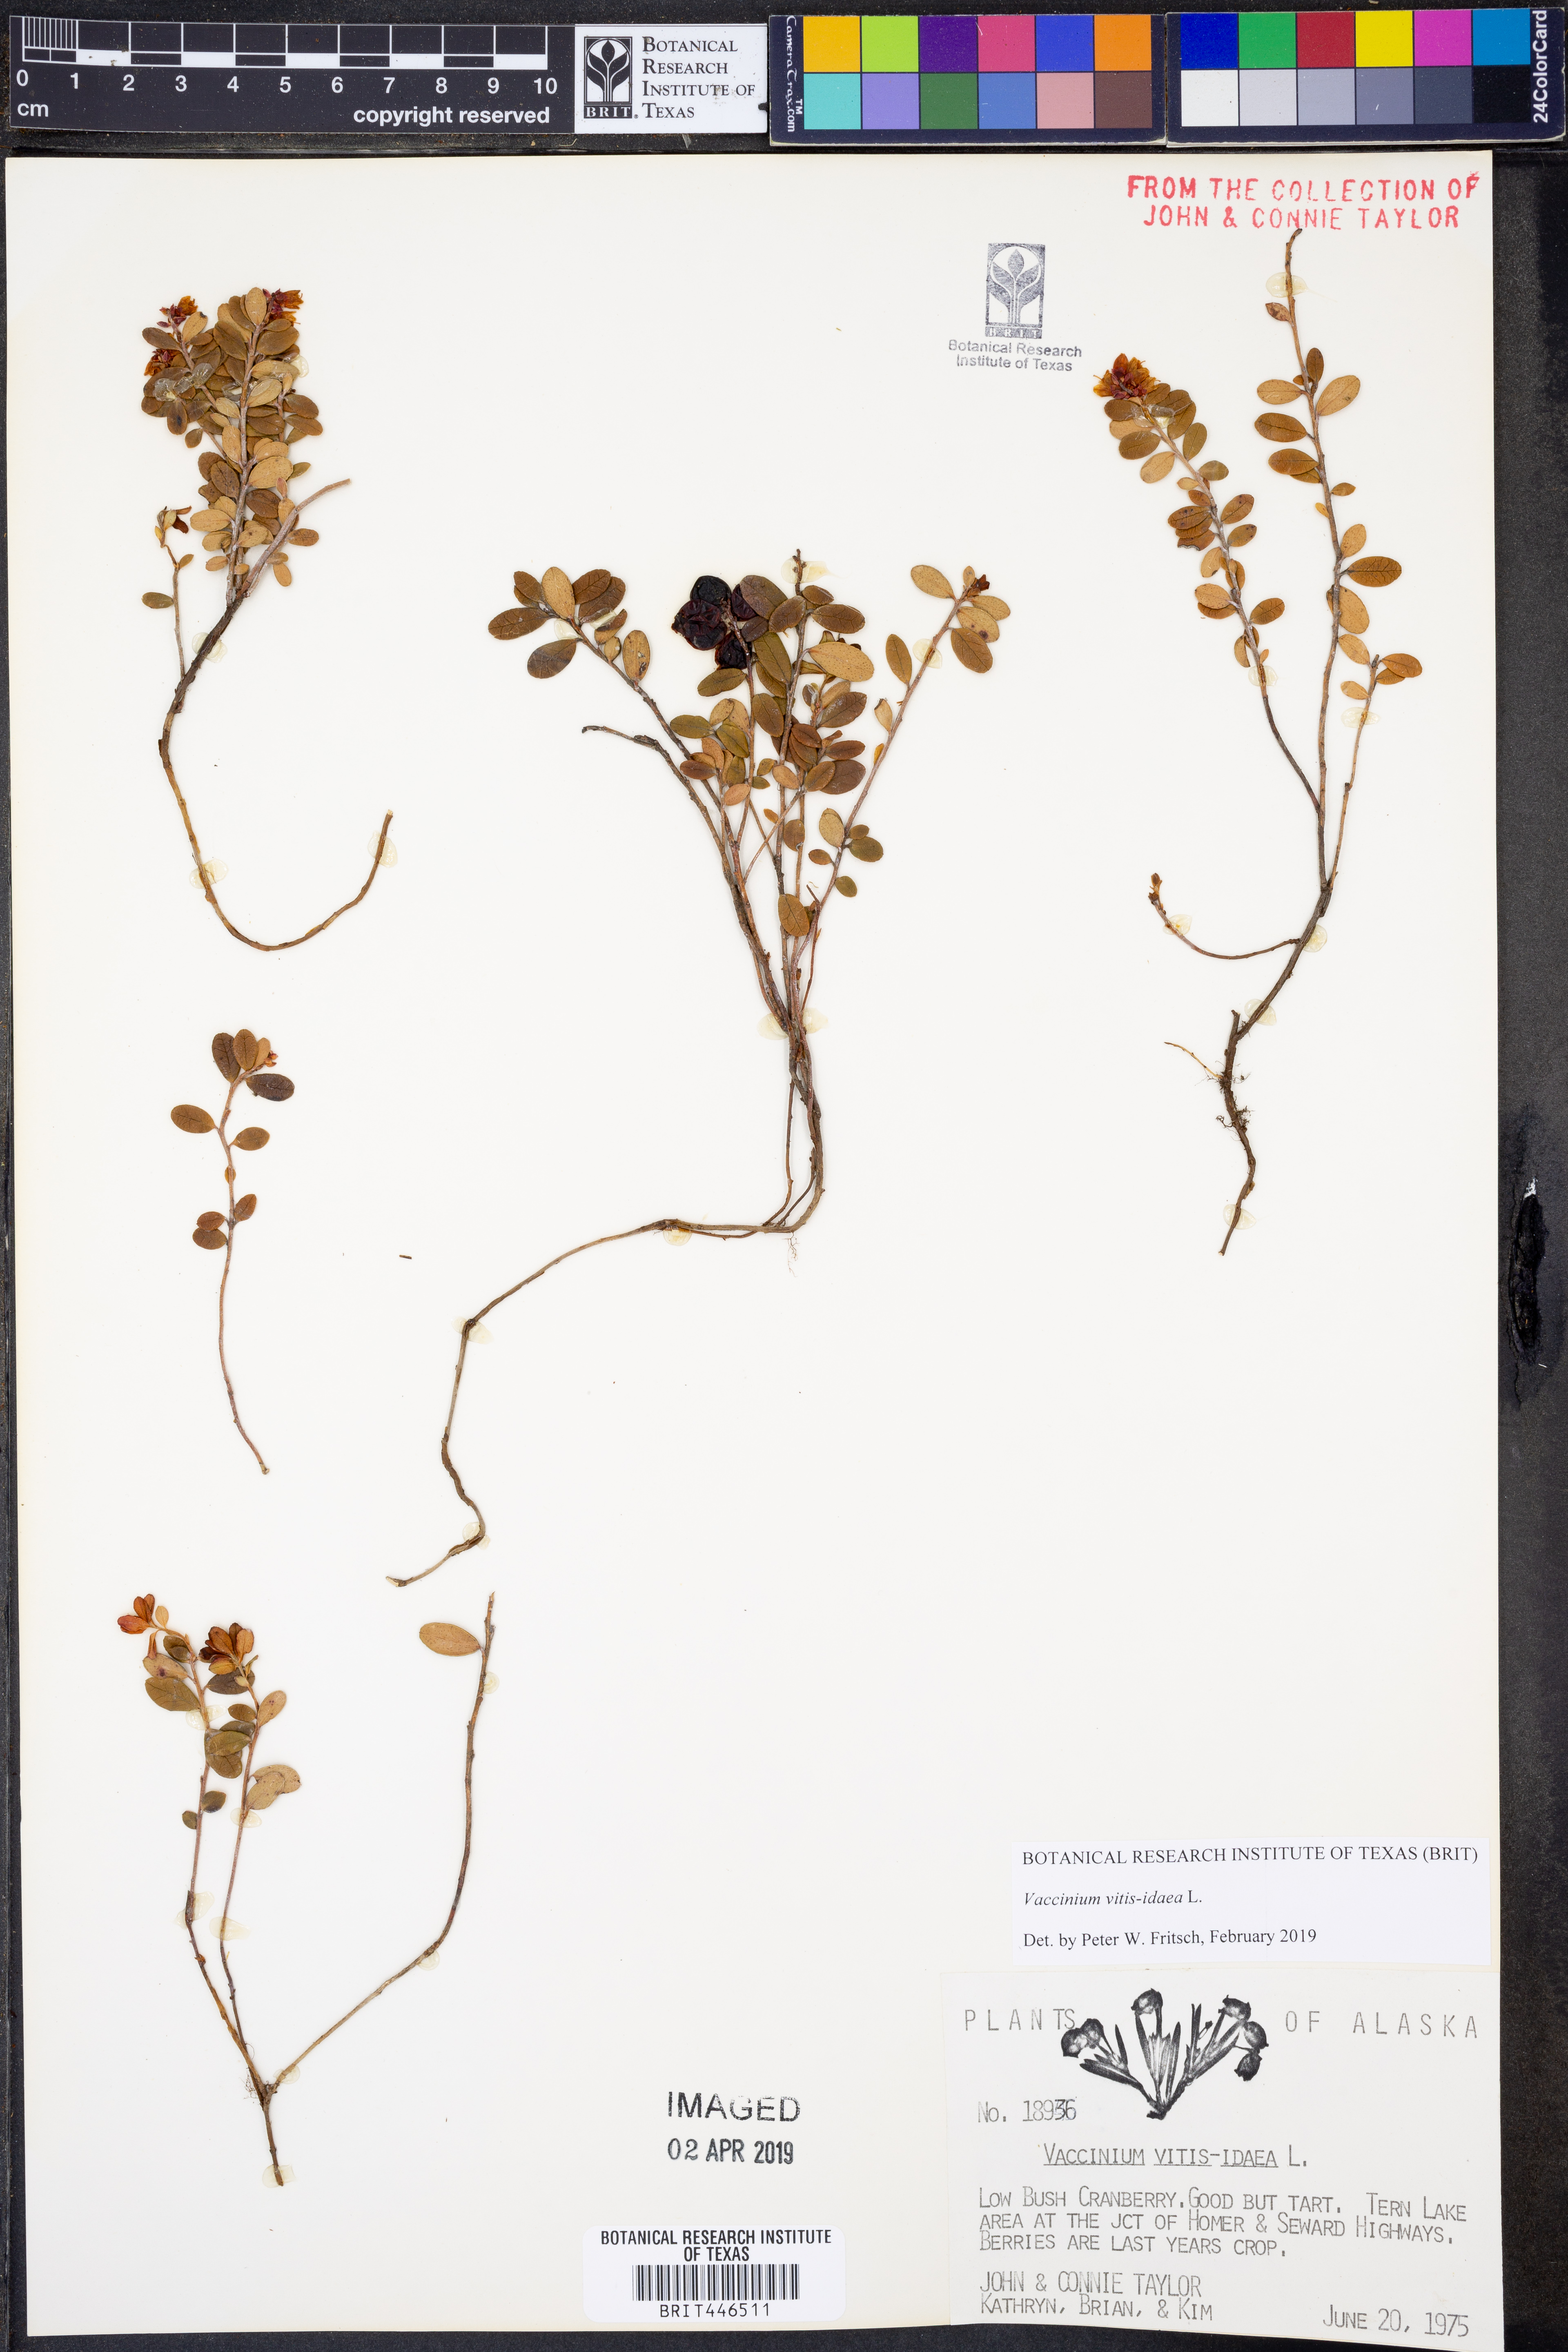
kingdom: Plantae
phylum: Tracheophyta
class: Magnoliopsida
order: Ericales
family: Ericaceae
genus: Vaccinium
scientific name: Vaccinium vitis-idaea
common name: Cowberry
